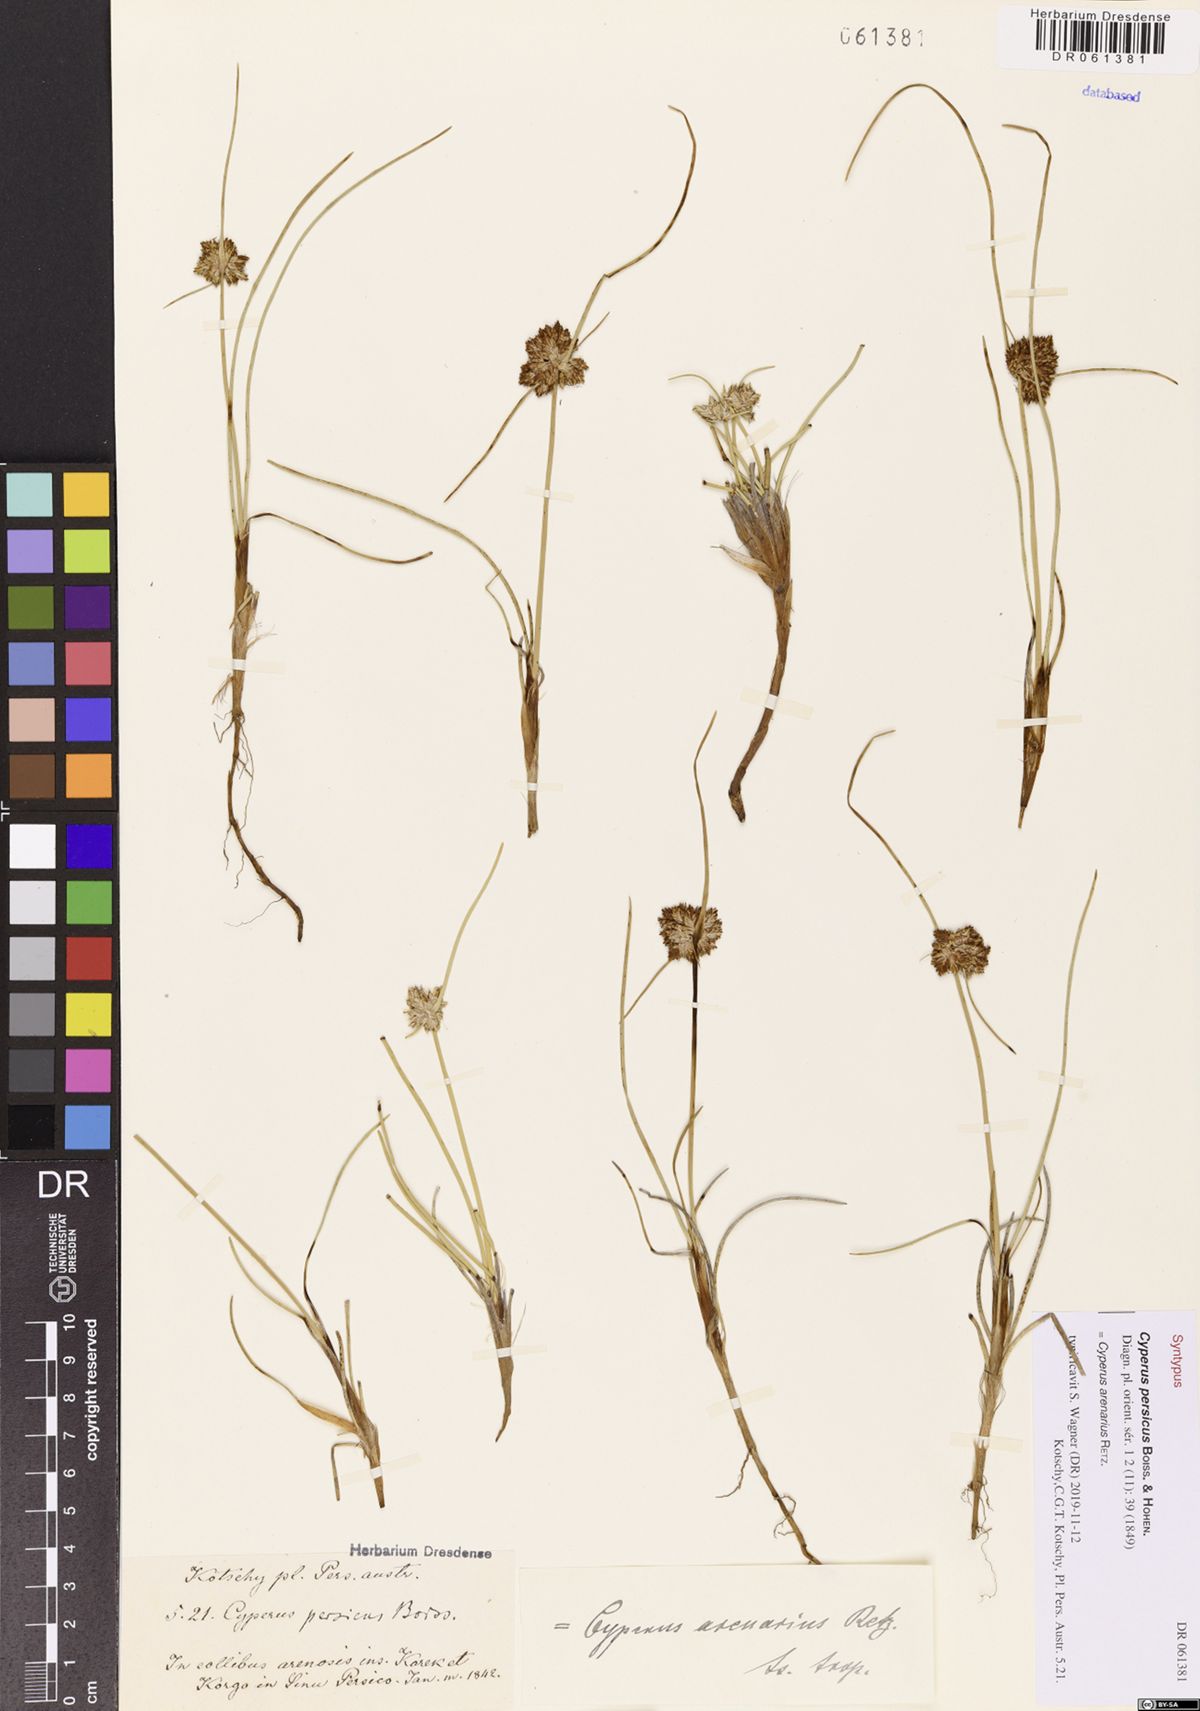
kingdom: Plantae
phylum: Tracheophyta
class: Liliopsida
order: Poales
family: Cyperaceae
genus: Cyperus
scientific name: Cyperus arenarius
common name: Dwarf sedge
